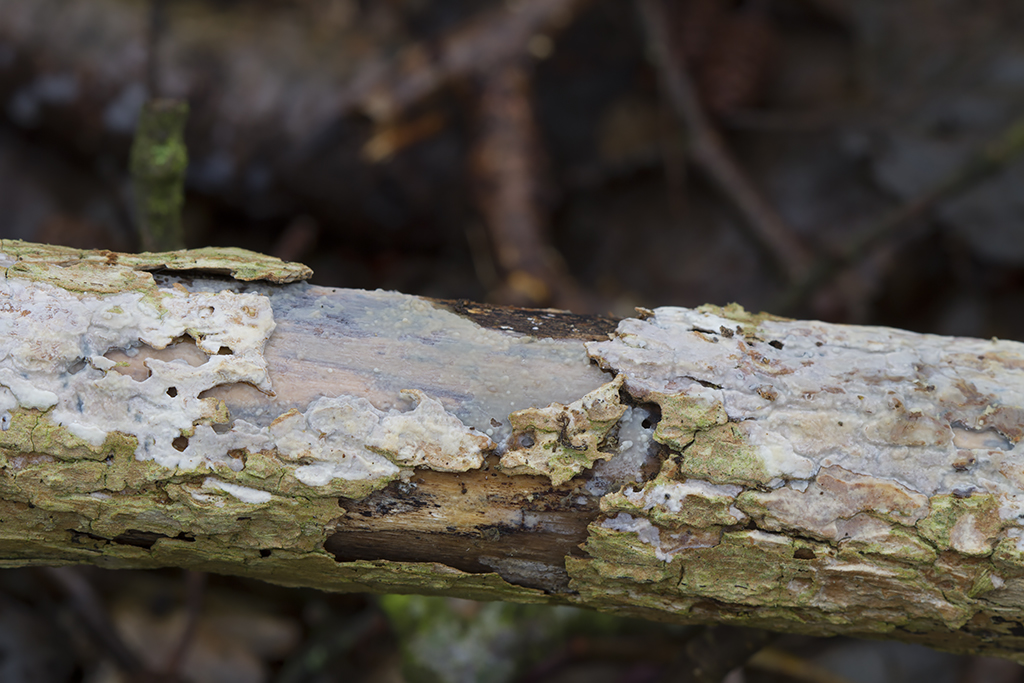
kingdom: Fungi
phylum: Basidiomycota
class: Agaricomycetes
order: Agaricales
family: Radulomycetaceae
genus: Radulomyces
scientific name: Radulomyces rickii
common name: rundsporet naftalinskind
